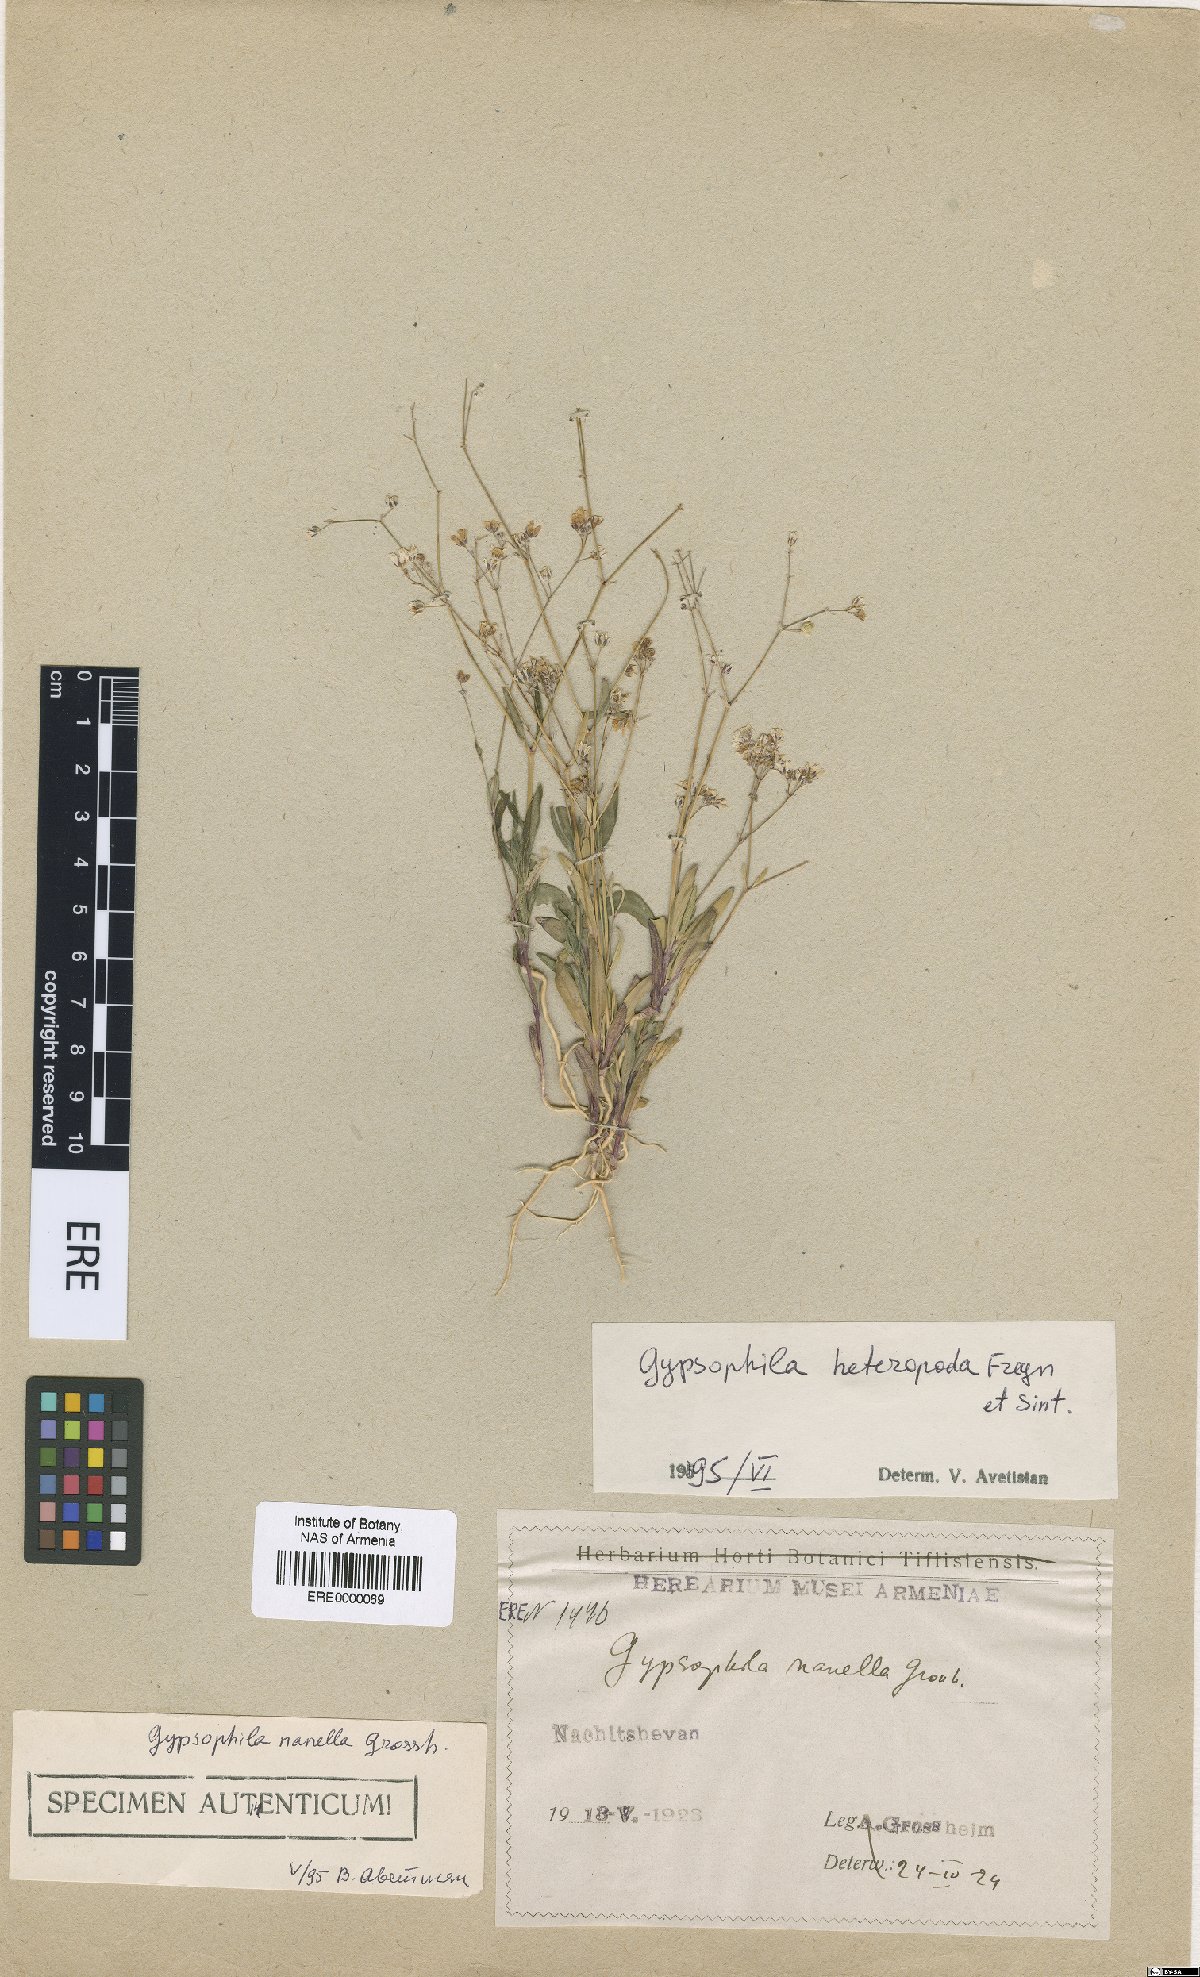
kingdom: Plantae
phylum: Tracheophyta
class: Magnoliopsida
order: Caryophyllales
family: Caryophyllaceae
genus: Gypsophila
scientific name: Gypsophila heteropoda
